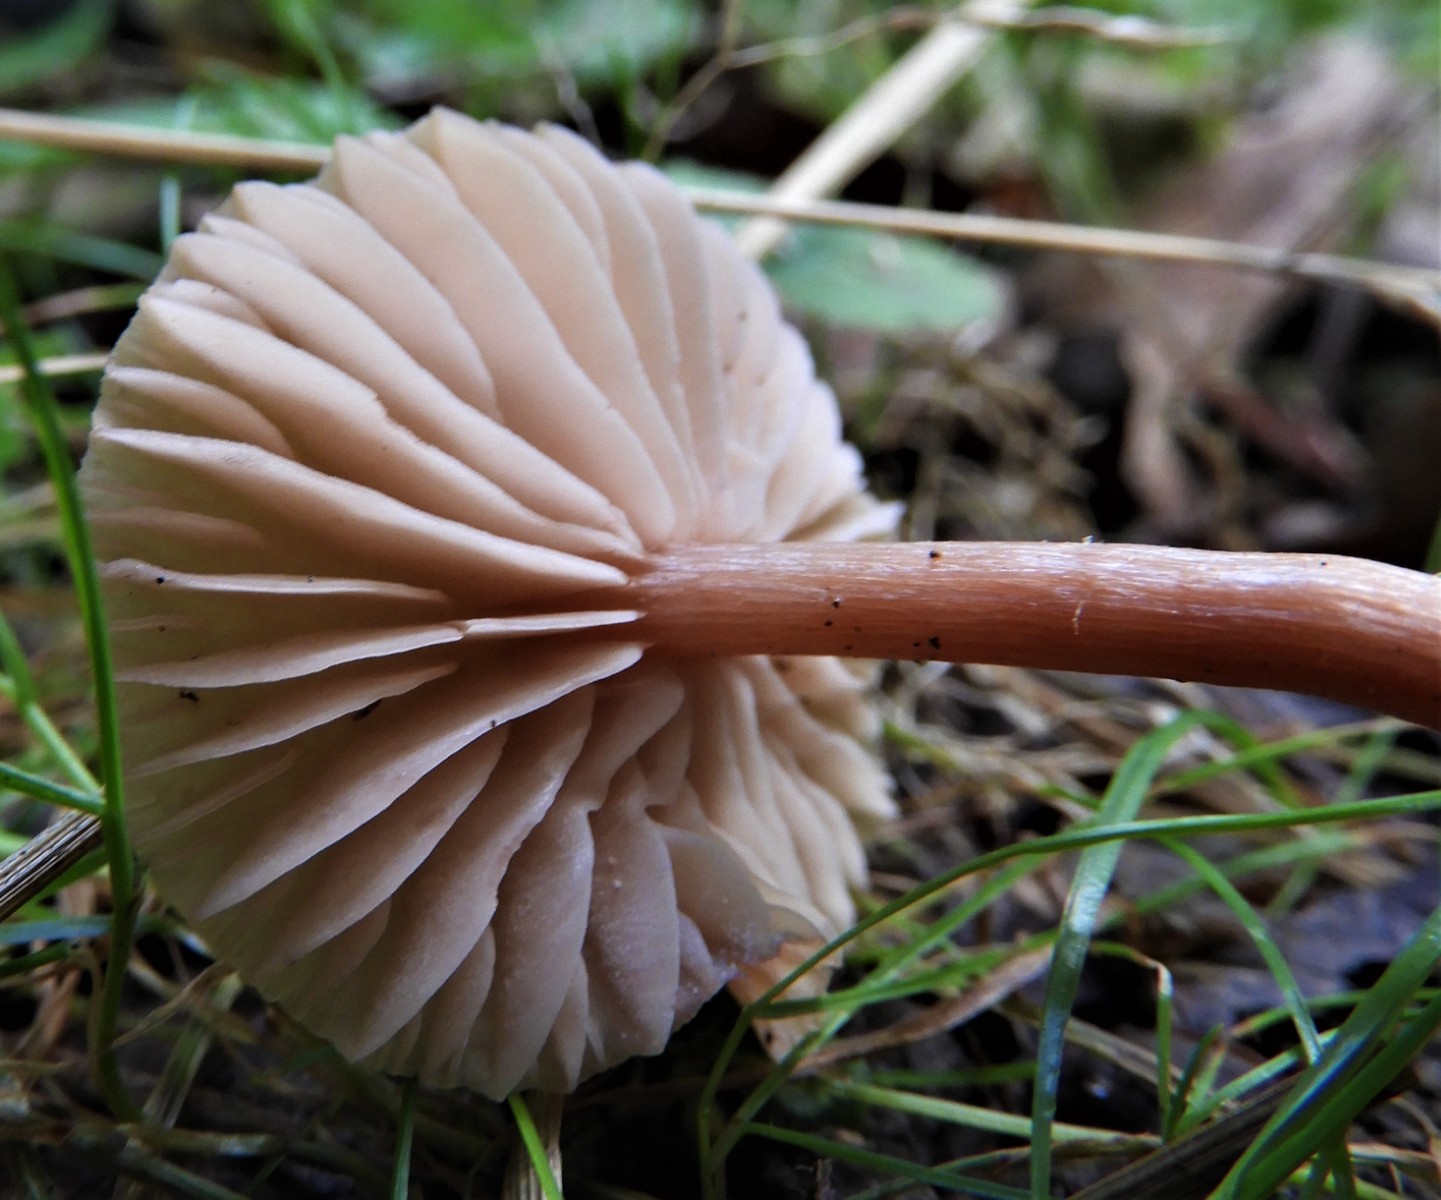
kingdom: Fungi
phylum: Basidiomycota
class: Agaricomycetes
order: Agaricales
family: Hydnangiaceae
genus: Laccaria
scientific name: Laccaria laccata
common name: rød ametysthat
